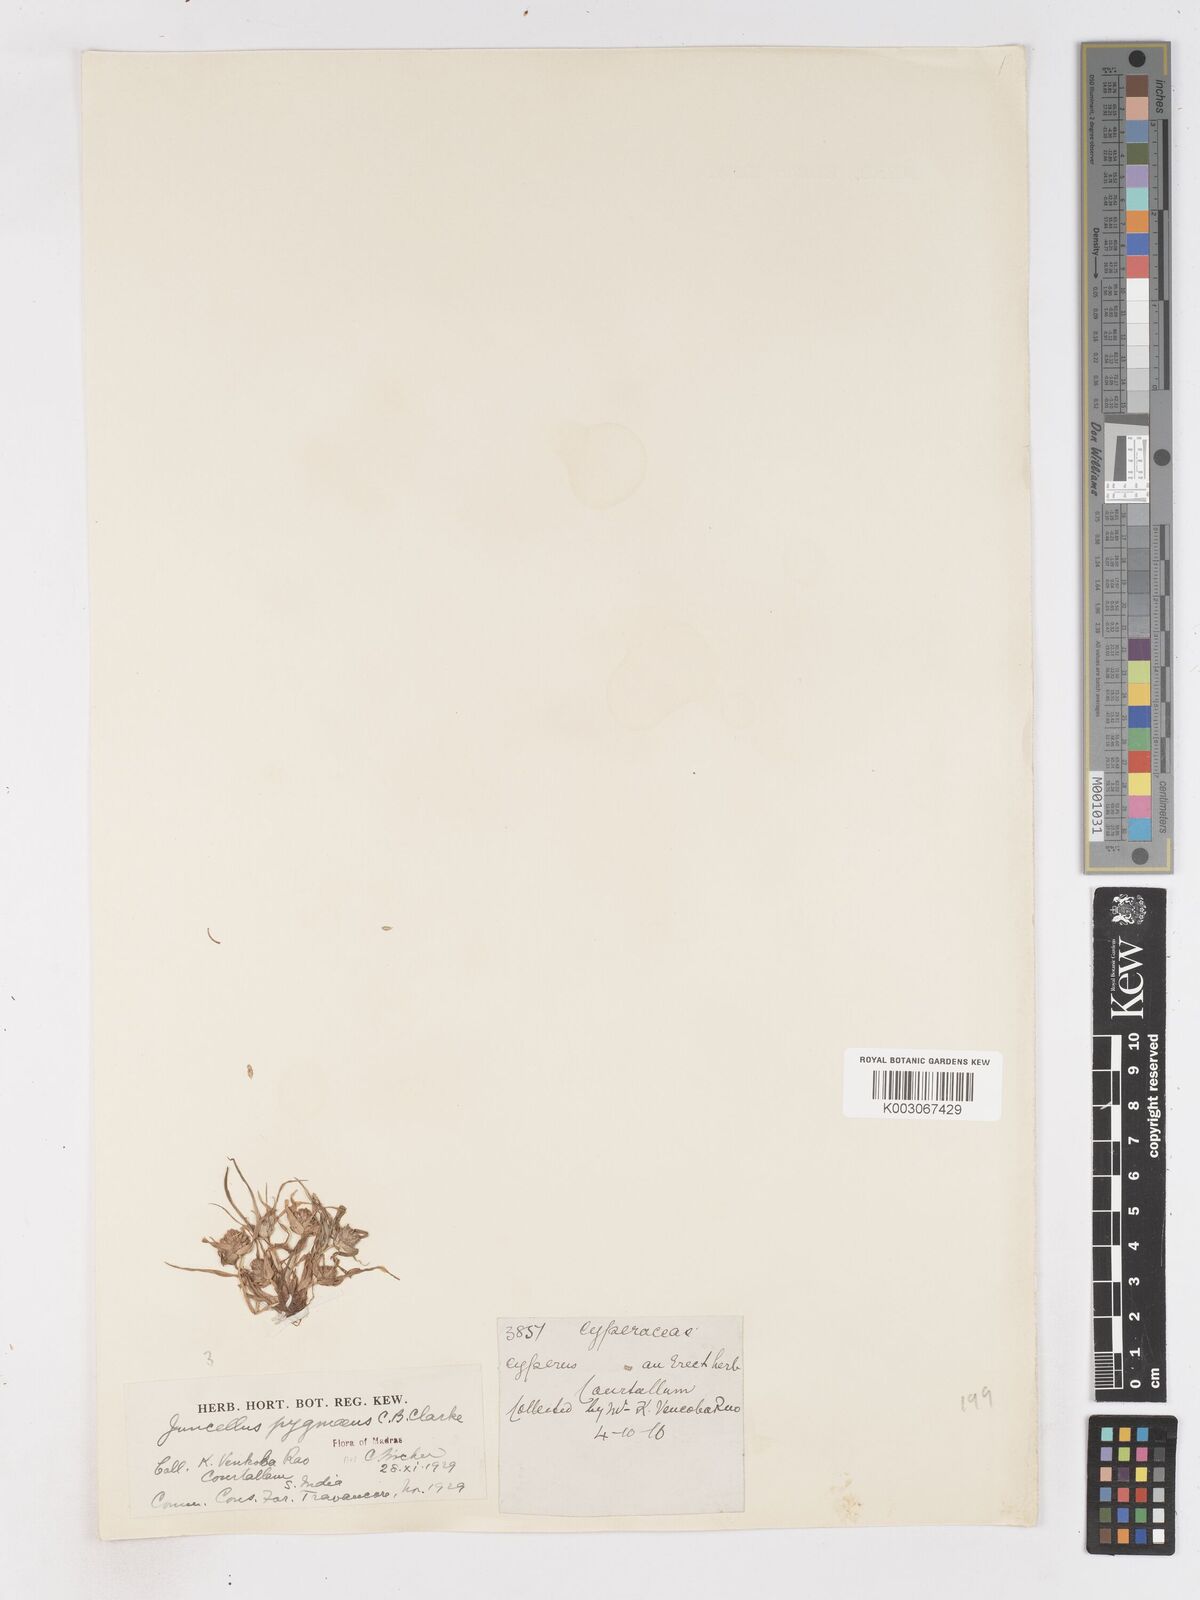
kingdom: Plantae
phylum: Tracheophyta
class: Liliopsida
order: Poales
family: Cyperaceae
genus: Cyperus
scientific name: Cyperus michelianus
